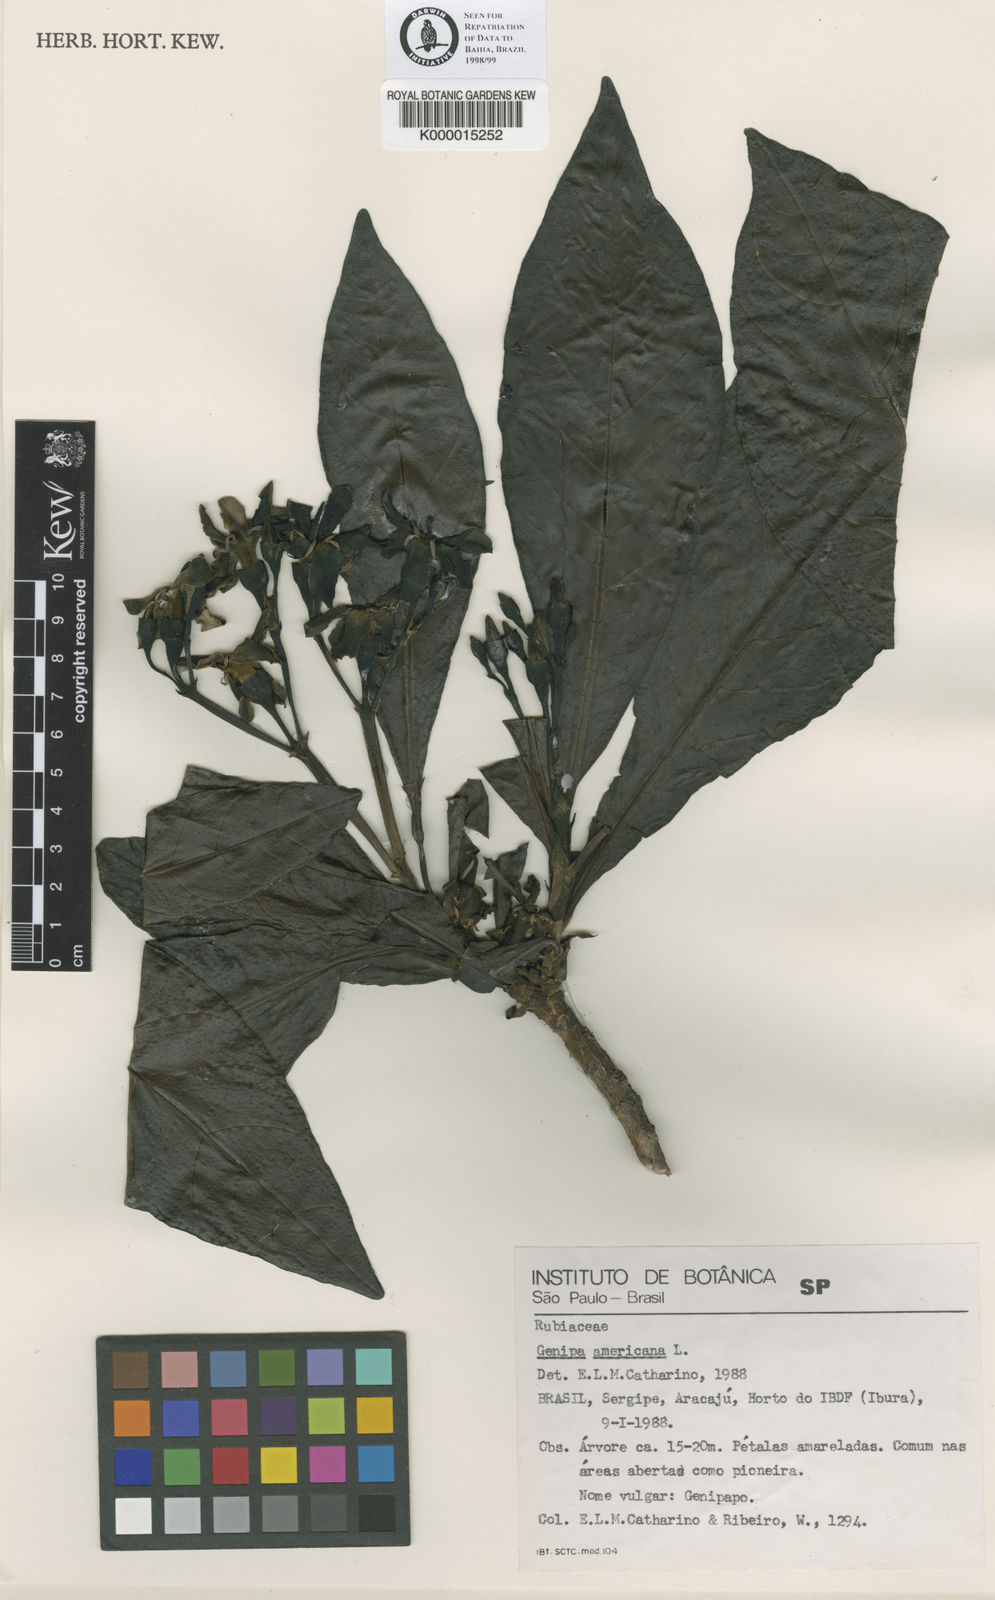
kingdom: Plantae
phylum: Tracheophyta
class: Magnoliopsida
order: Gentianales
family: Rubiaceae
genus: Genipa
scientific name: Genipa americana
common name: Genipap
